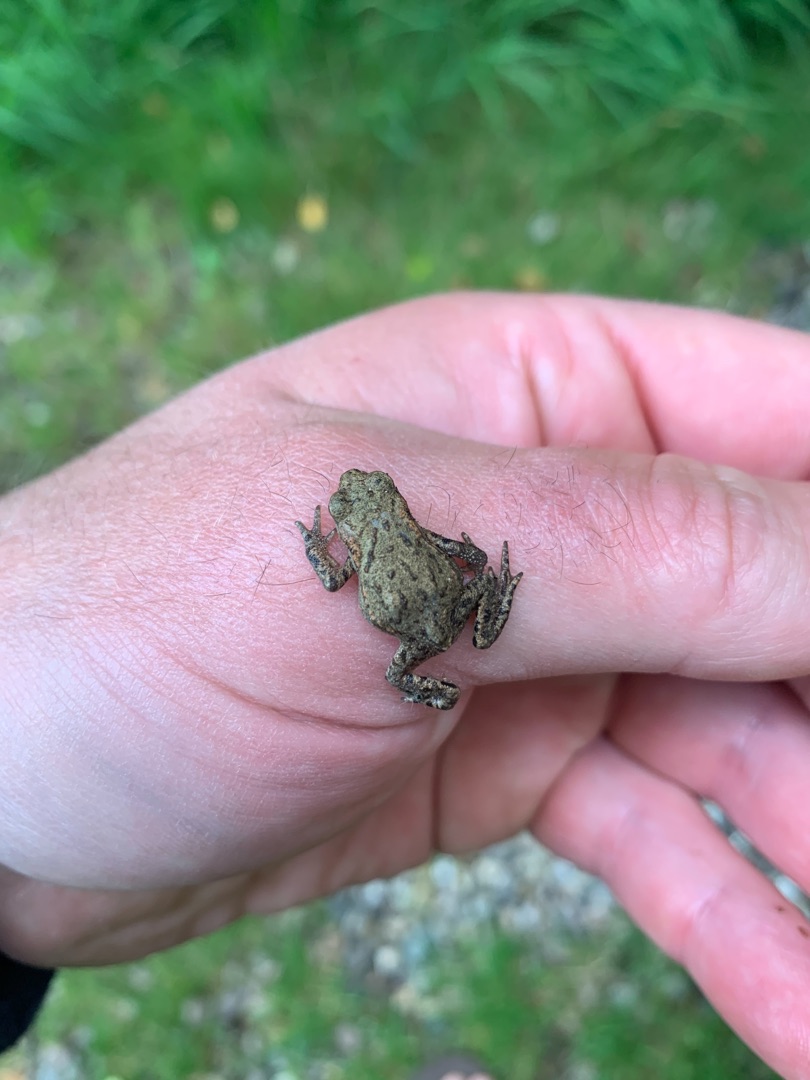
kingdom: Animalia
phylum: Chordata
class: Amphibia
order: Anura
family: Bufonidae
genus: Bufo
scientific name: Bufo bufo
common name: Skrubtudse
